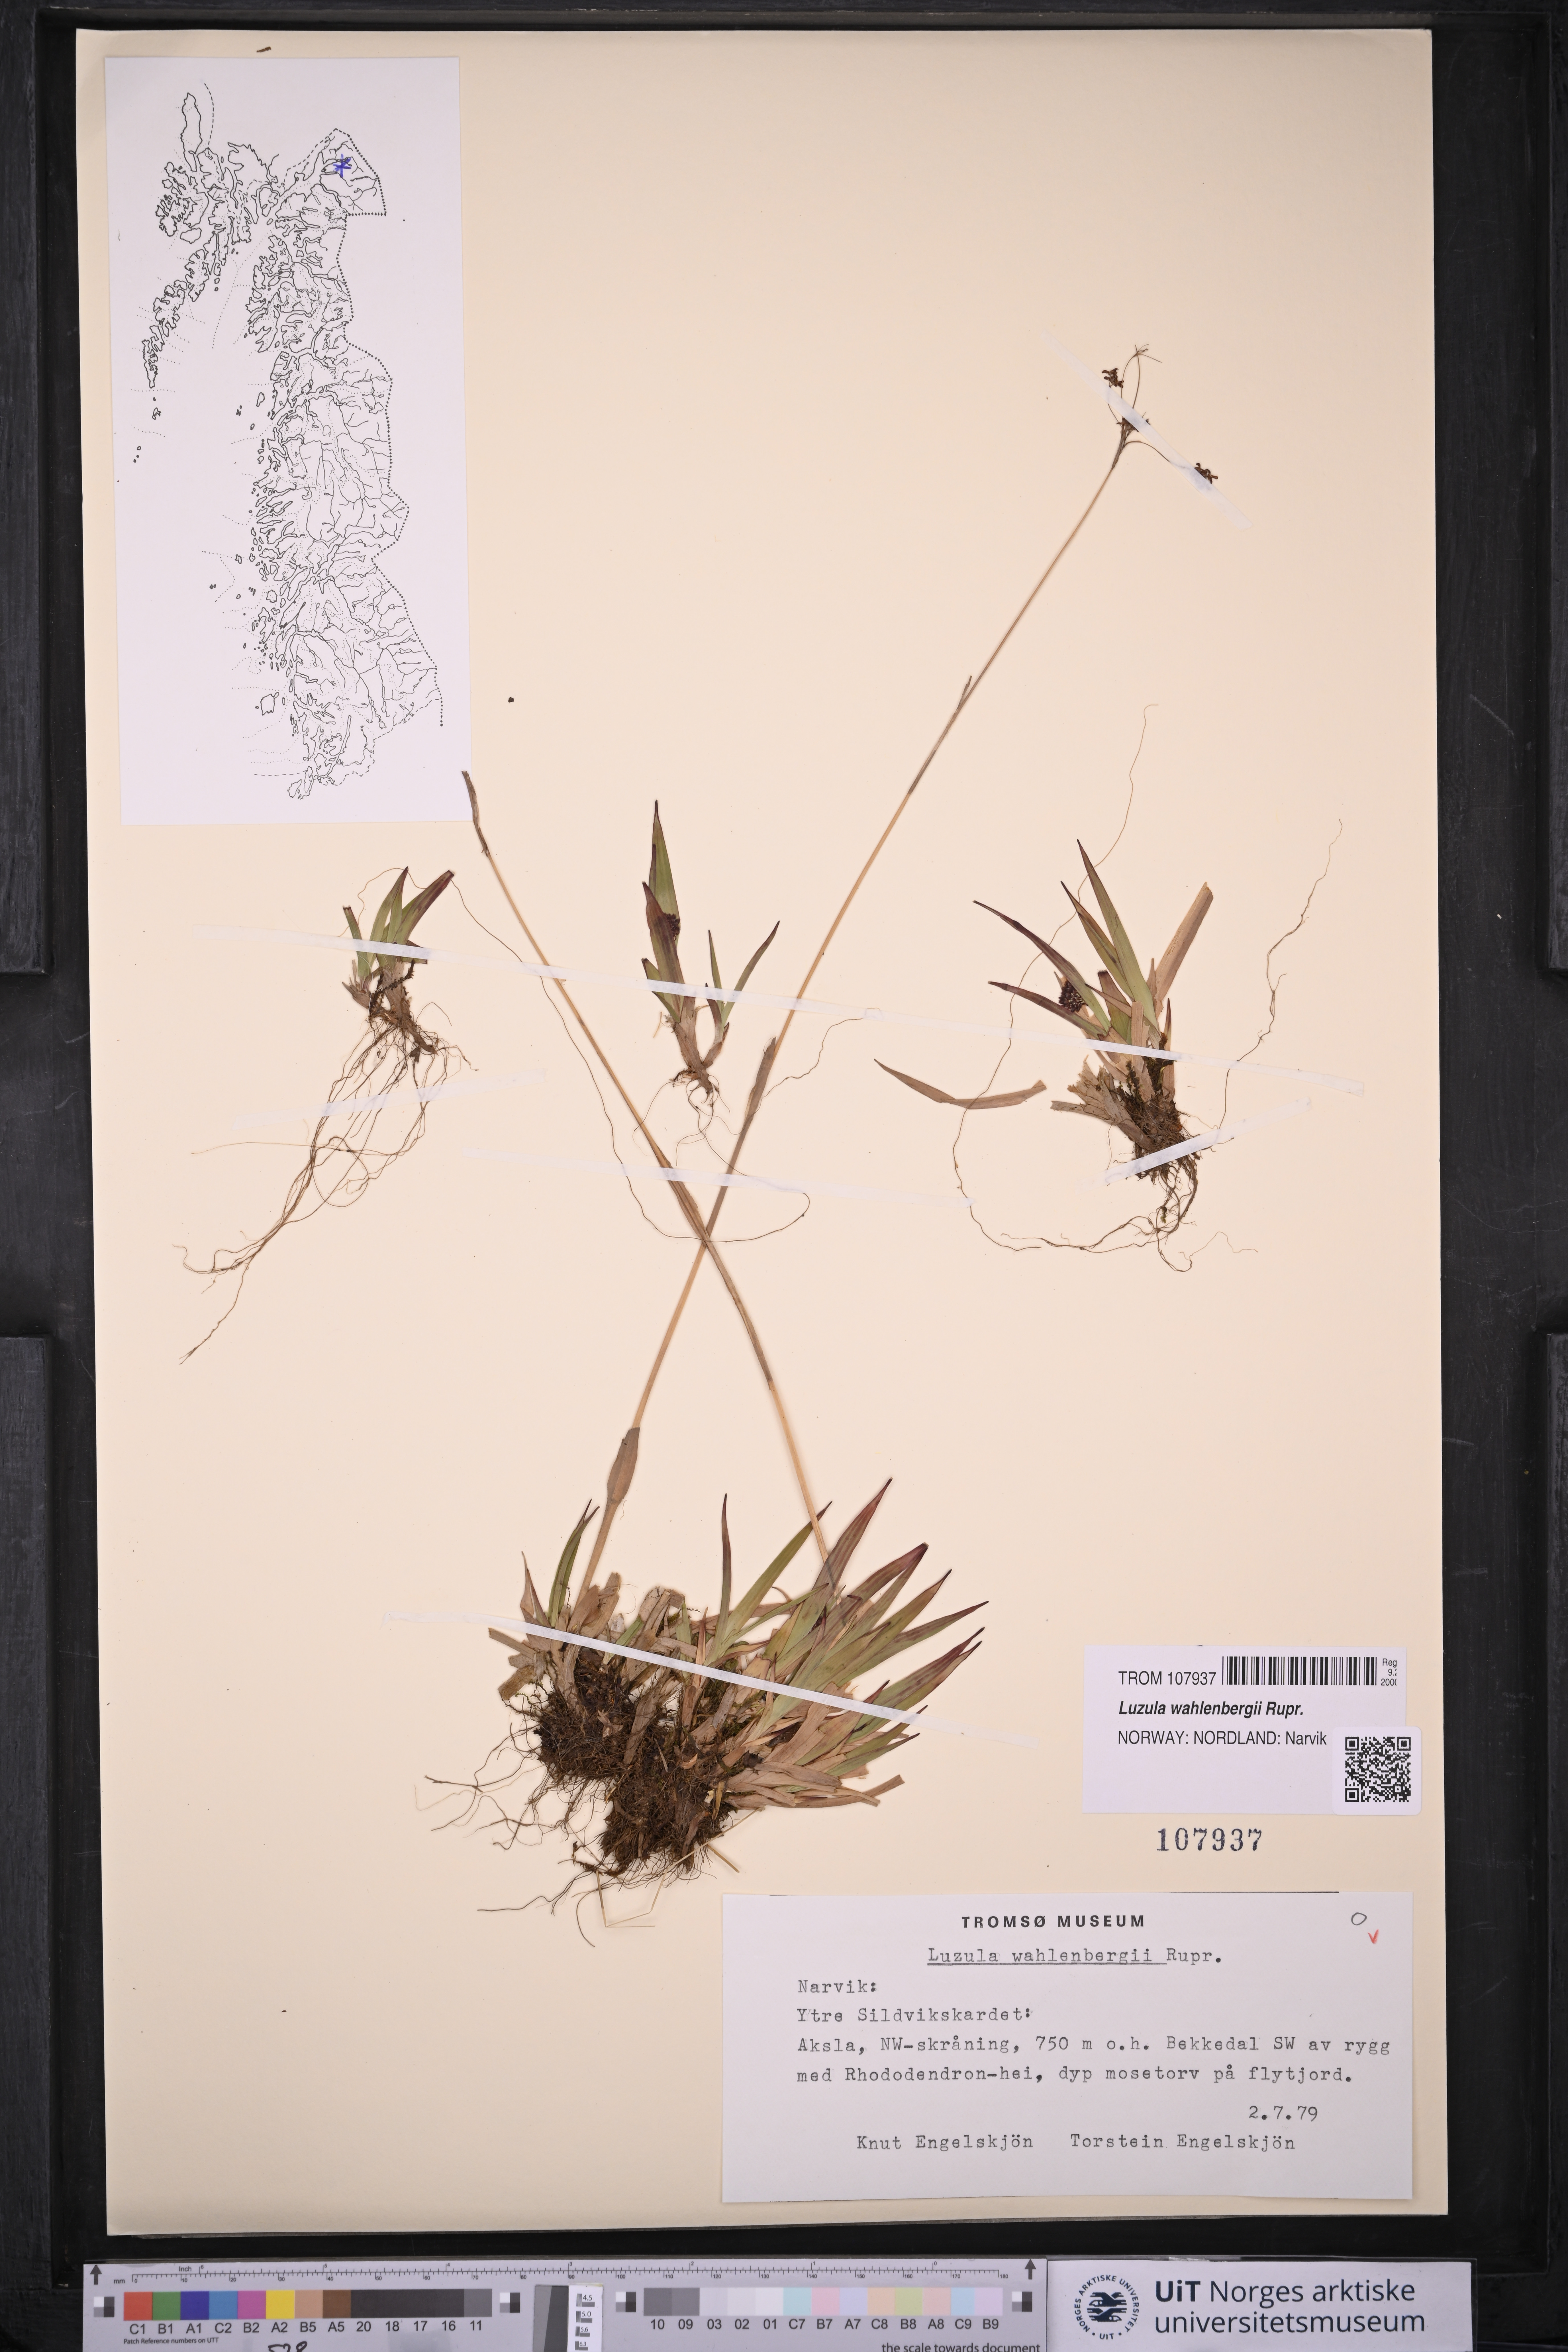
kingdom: Plantae
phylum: Tracheophyta
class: Liliopsida
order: Poales
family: Juncaceae
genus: Luzula
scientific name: Luzula wahlenbergii
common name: Wahlenberg's wood-rush
